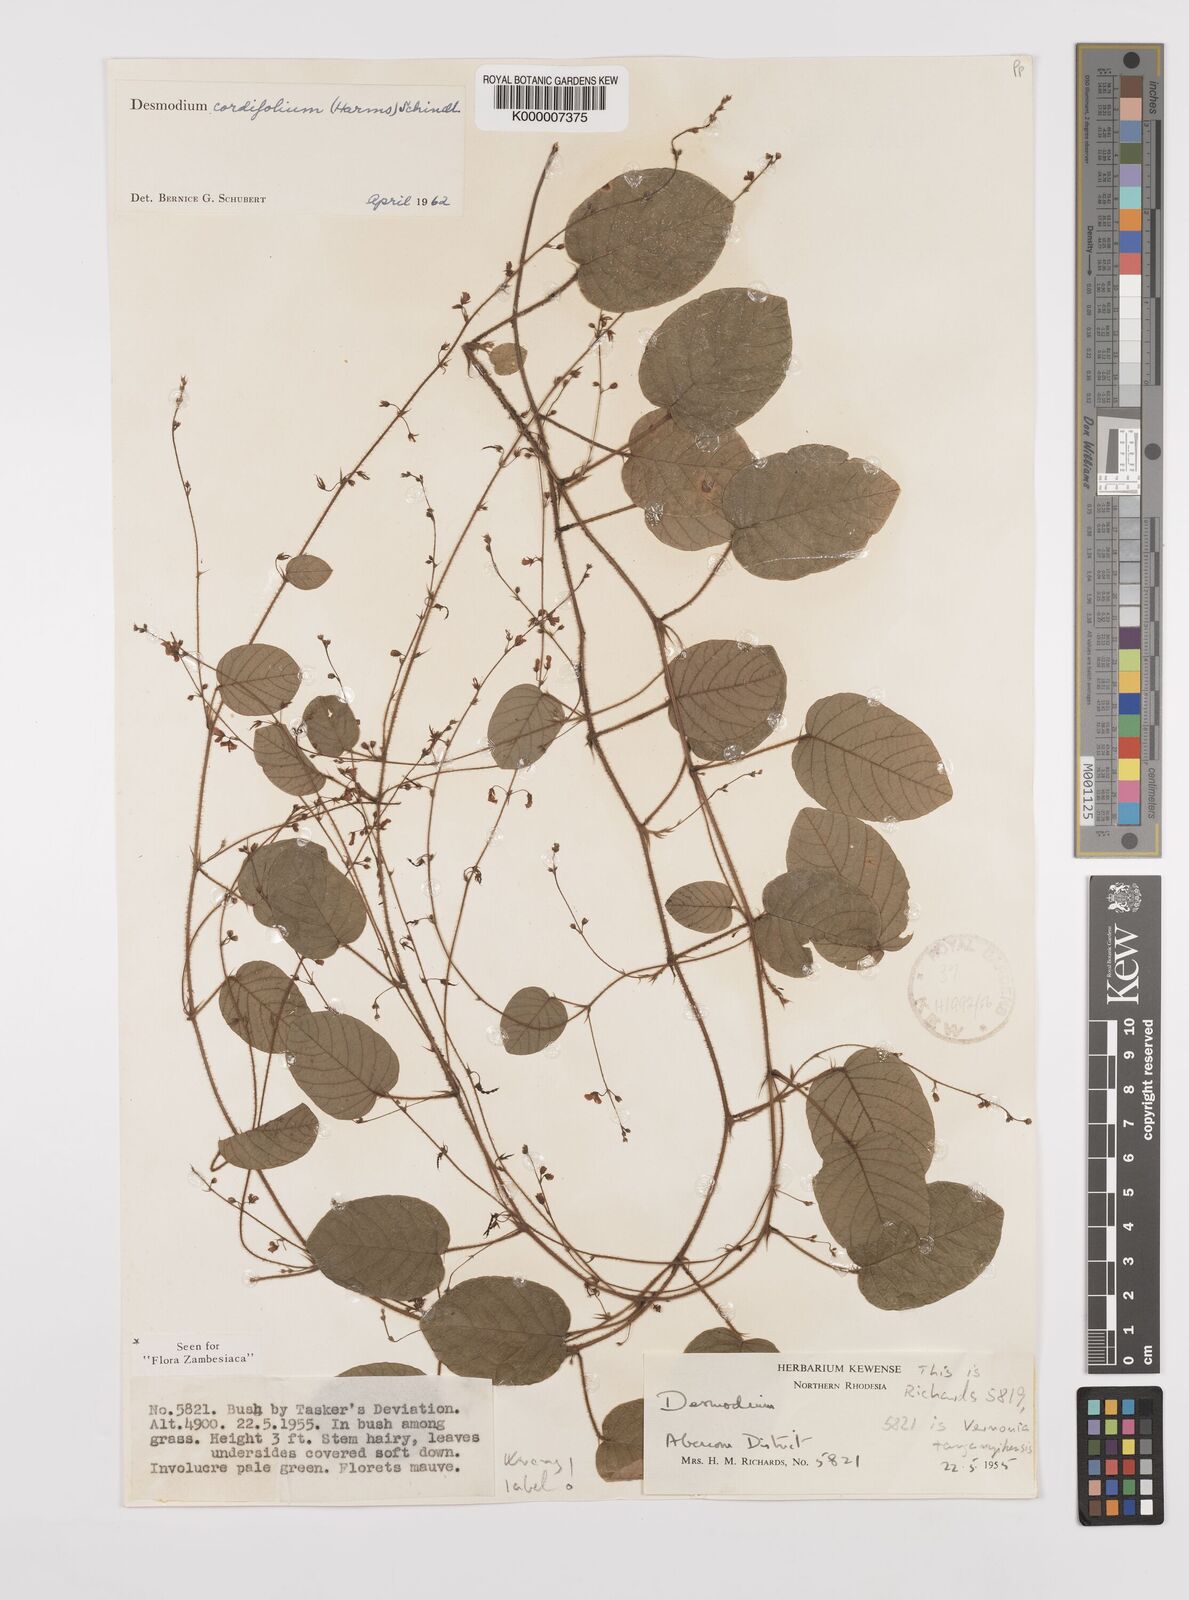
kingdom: Plantae
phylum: Tracheophyta
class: Magnoliopsida
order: Fabales
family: Fabaceae
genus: Grona
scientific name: Grona cordifolia
